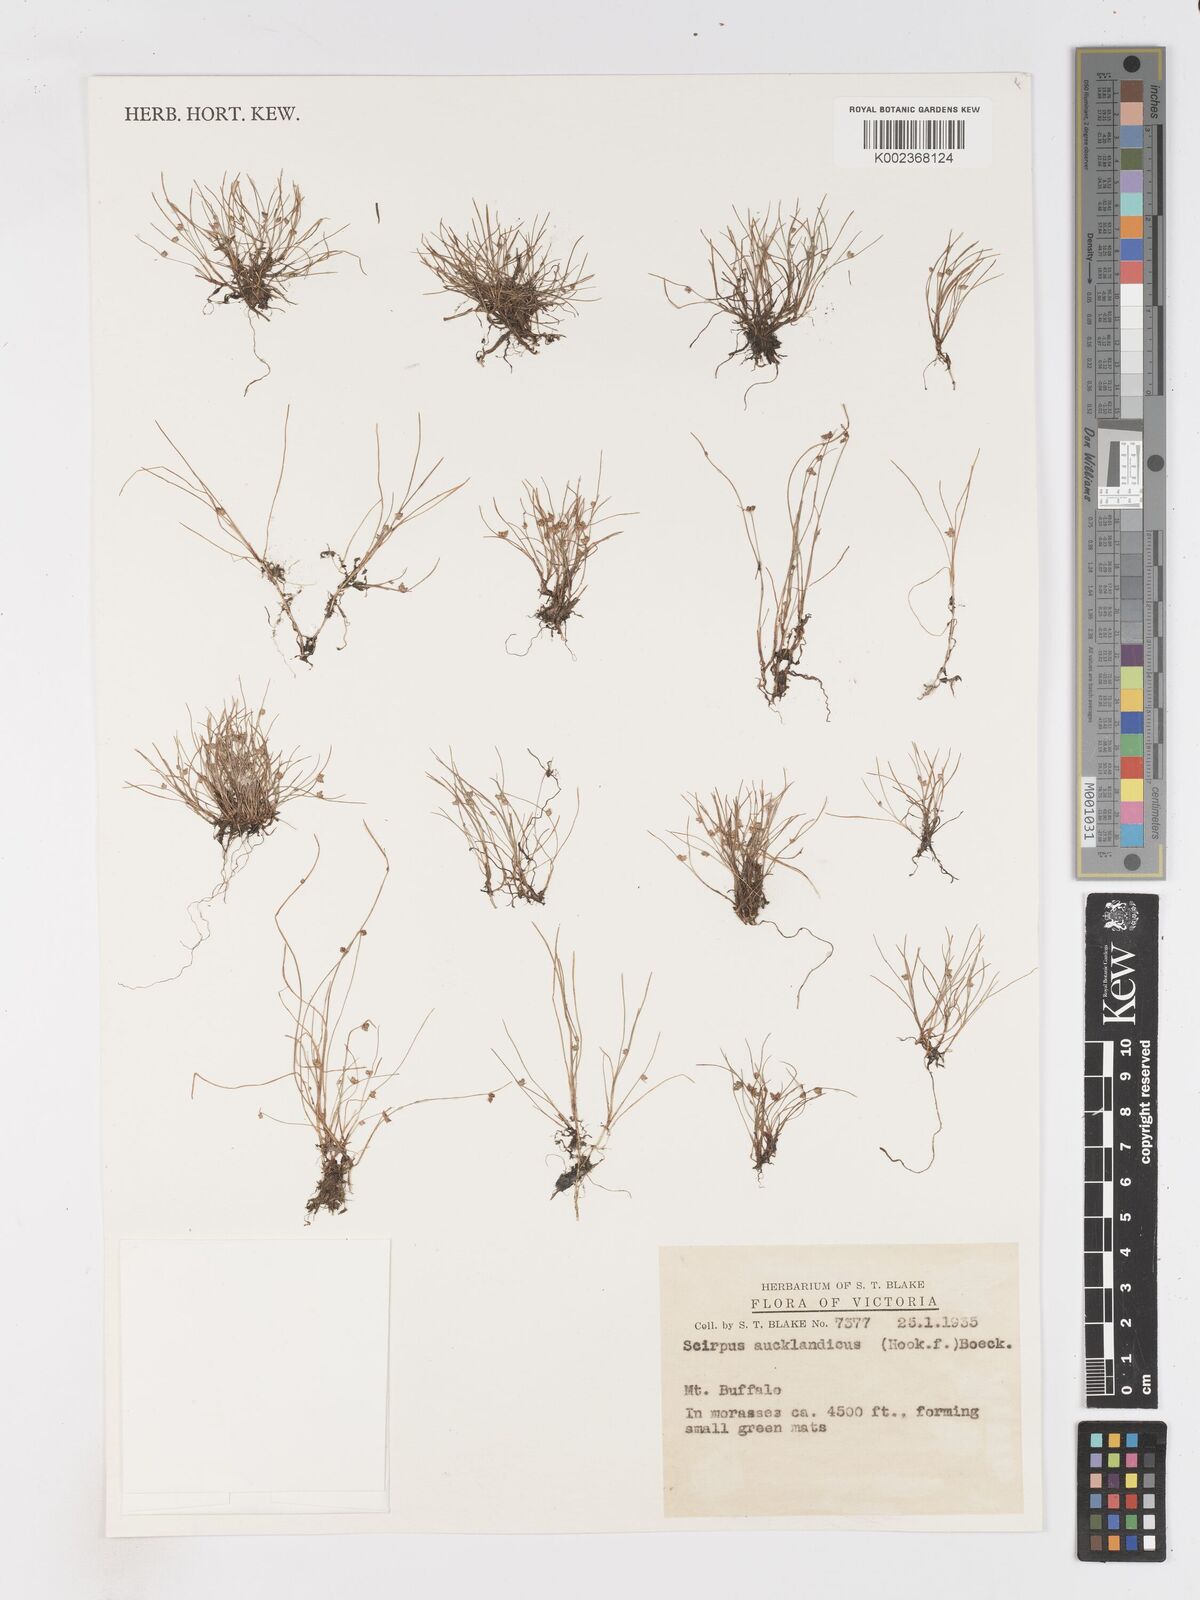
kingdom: Plantae
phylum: Tracheophyta
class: Liliopsida
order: Poales
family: Cyperaceae
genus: Isolepis
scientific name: Isolepis aucklandica
